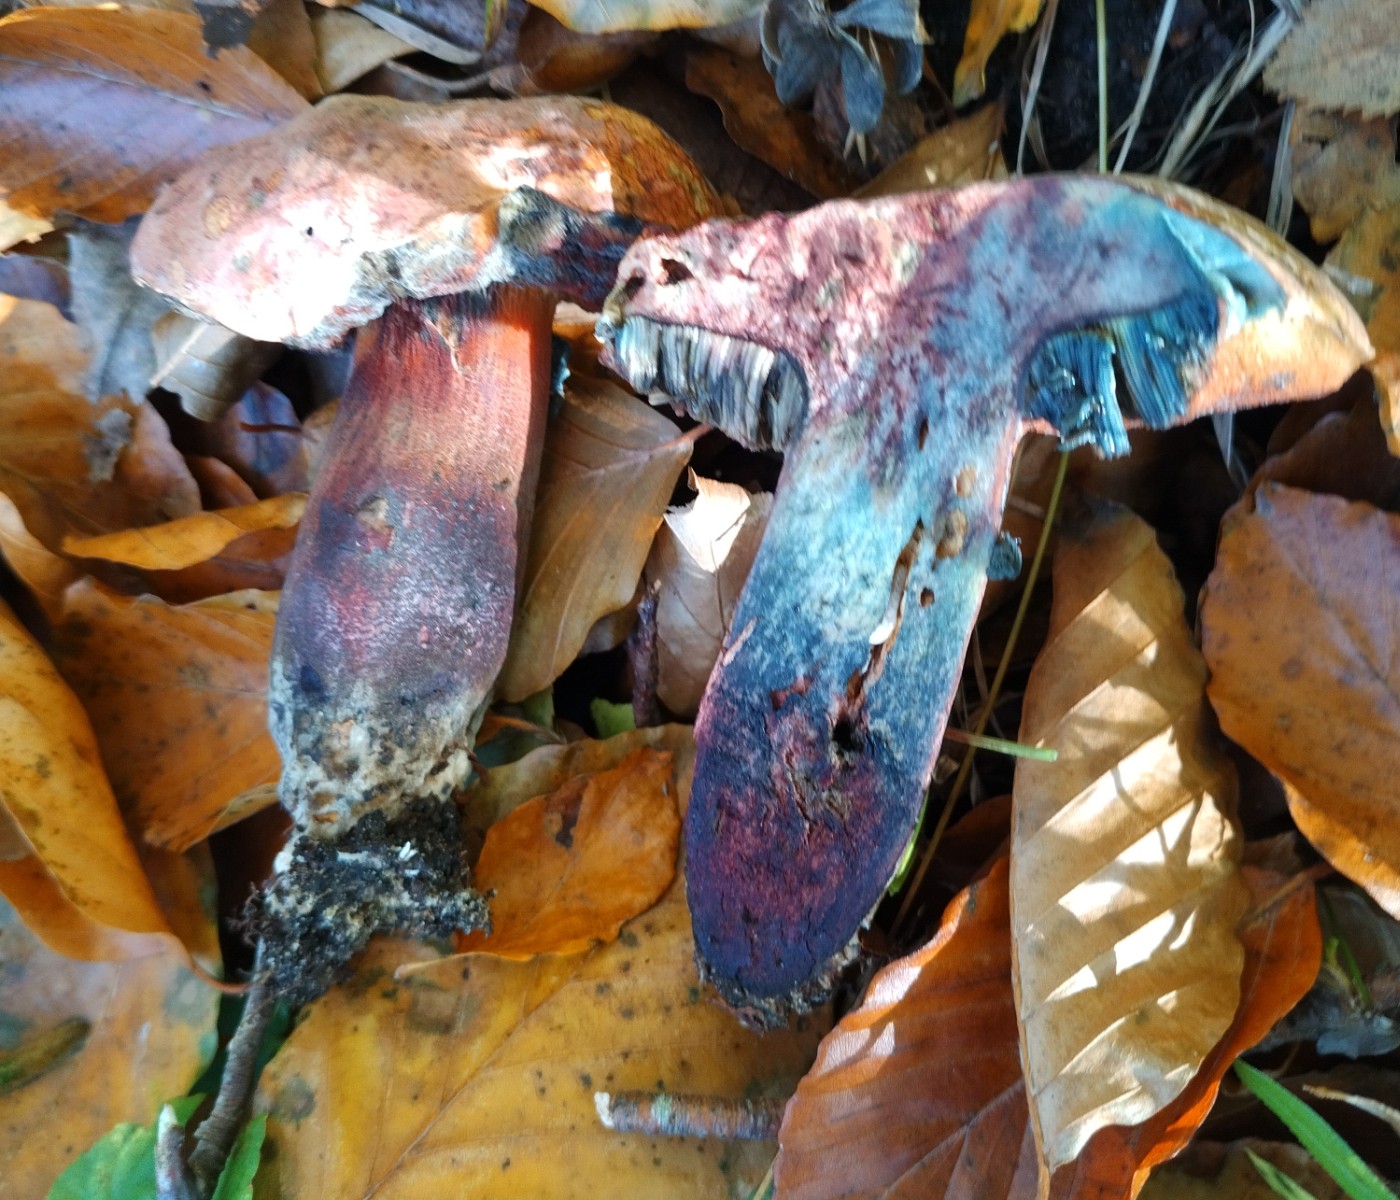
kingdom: Fungi
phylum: Basidiomycota
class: Agaricomycetes
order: Boletales
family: Boletaceae
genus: Suillellus
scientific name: Suillellus luridus
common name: netstokket indigorørhat
